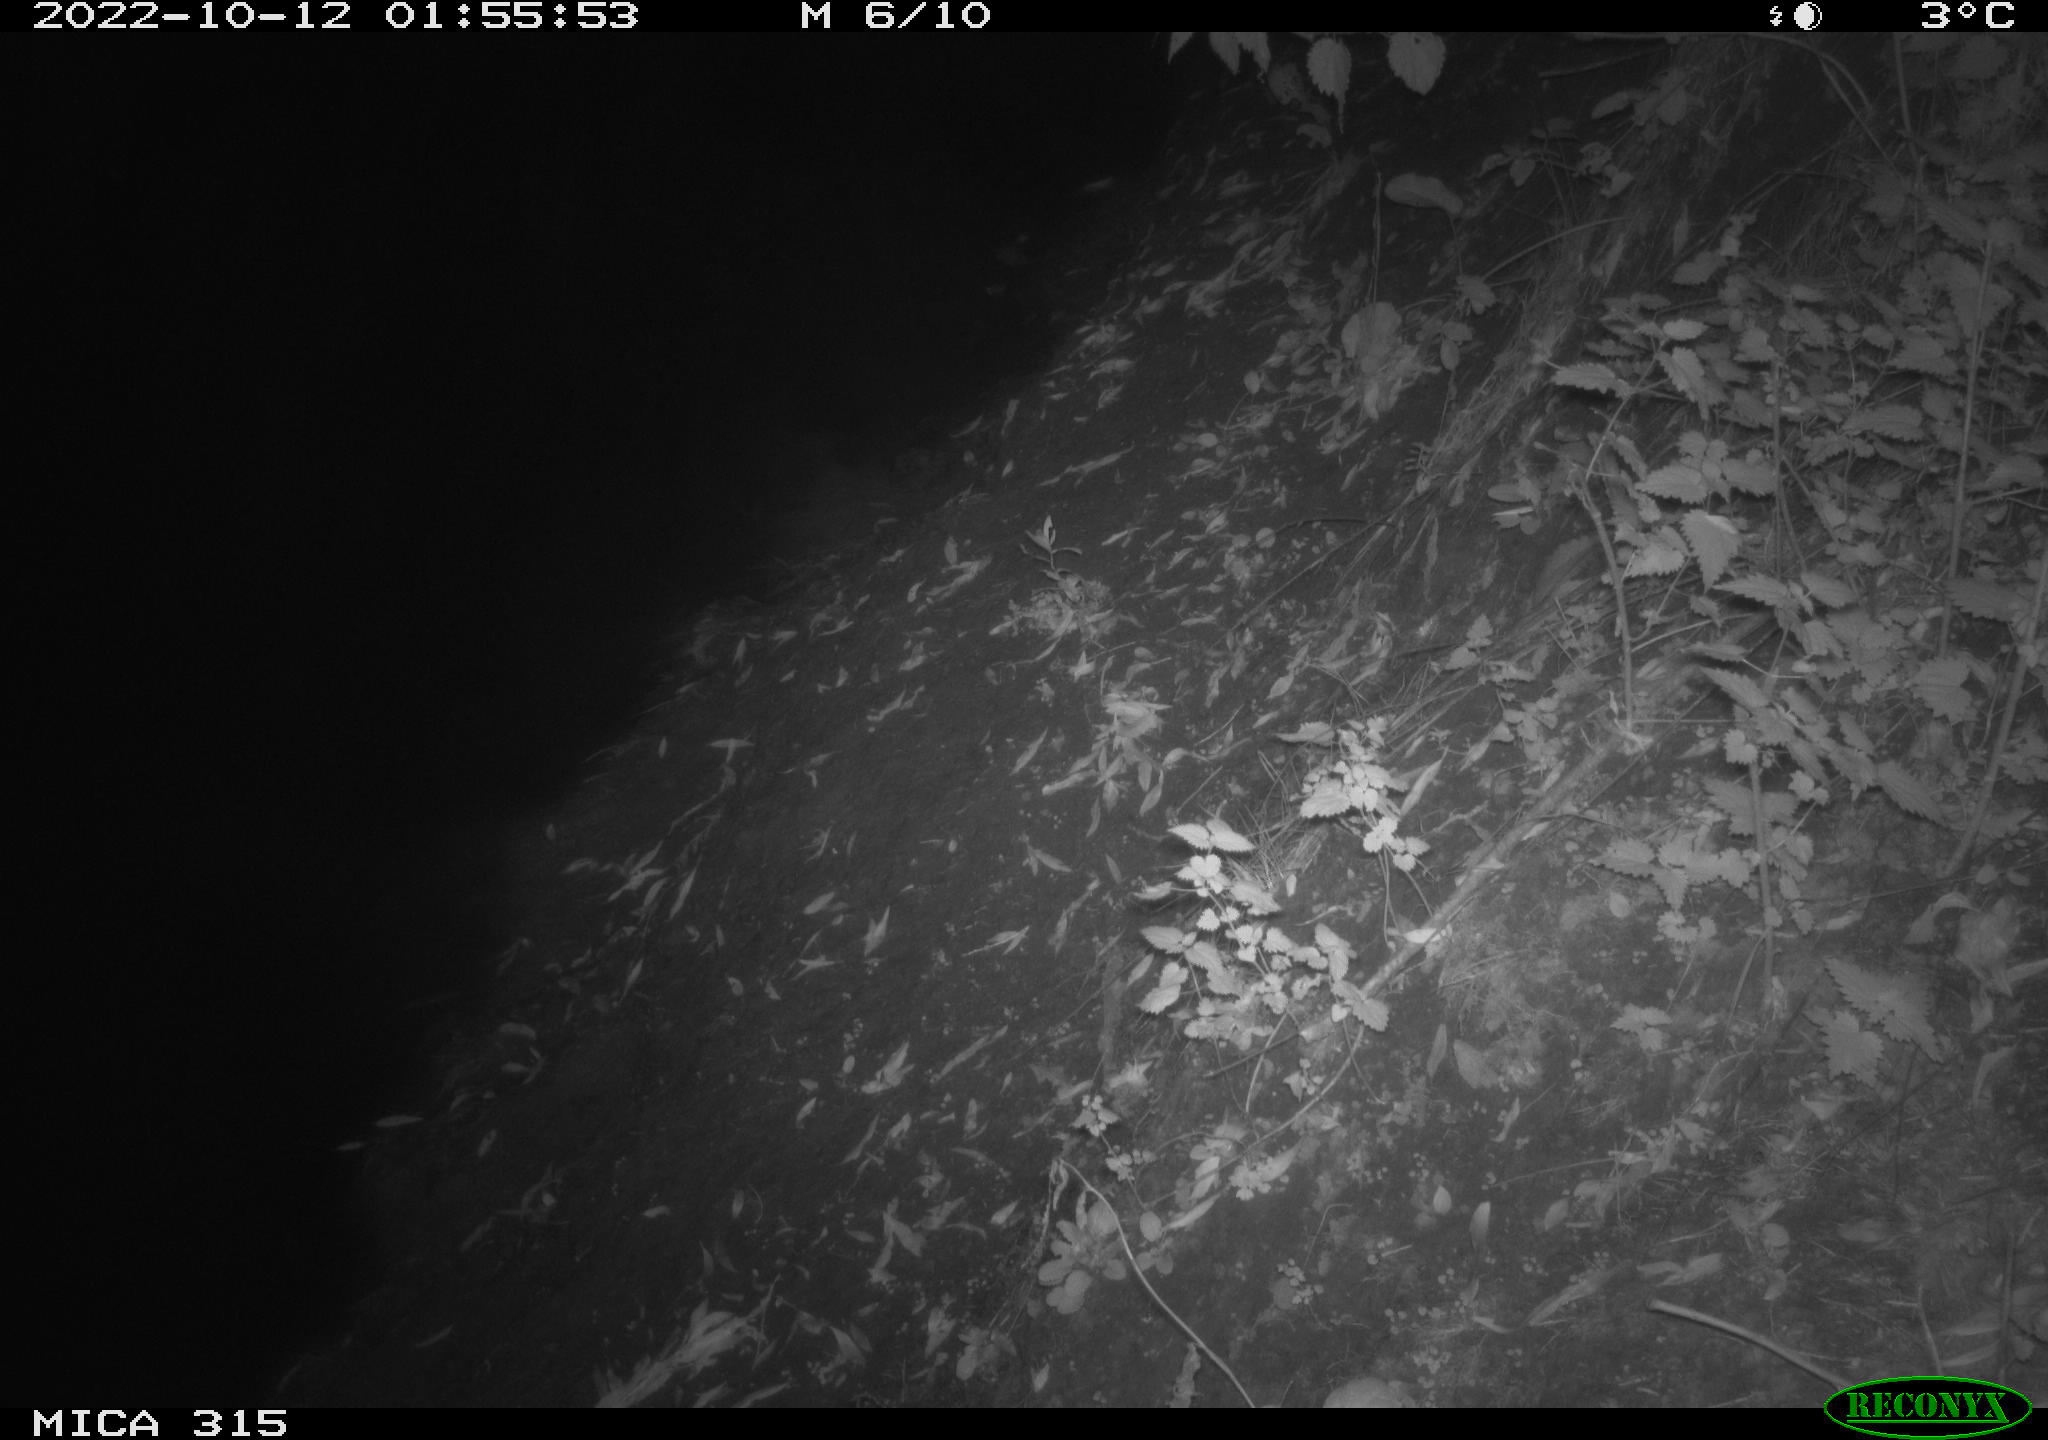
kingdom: Animalia
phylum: Chordata
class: Mammalia
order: Carnivora
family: Canidae
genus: Vulpes
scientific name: Vulpes vulpes
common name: Red fox
